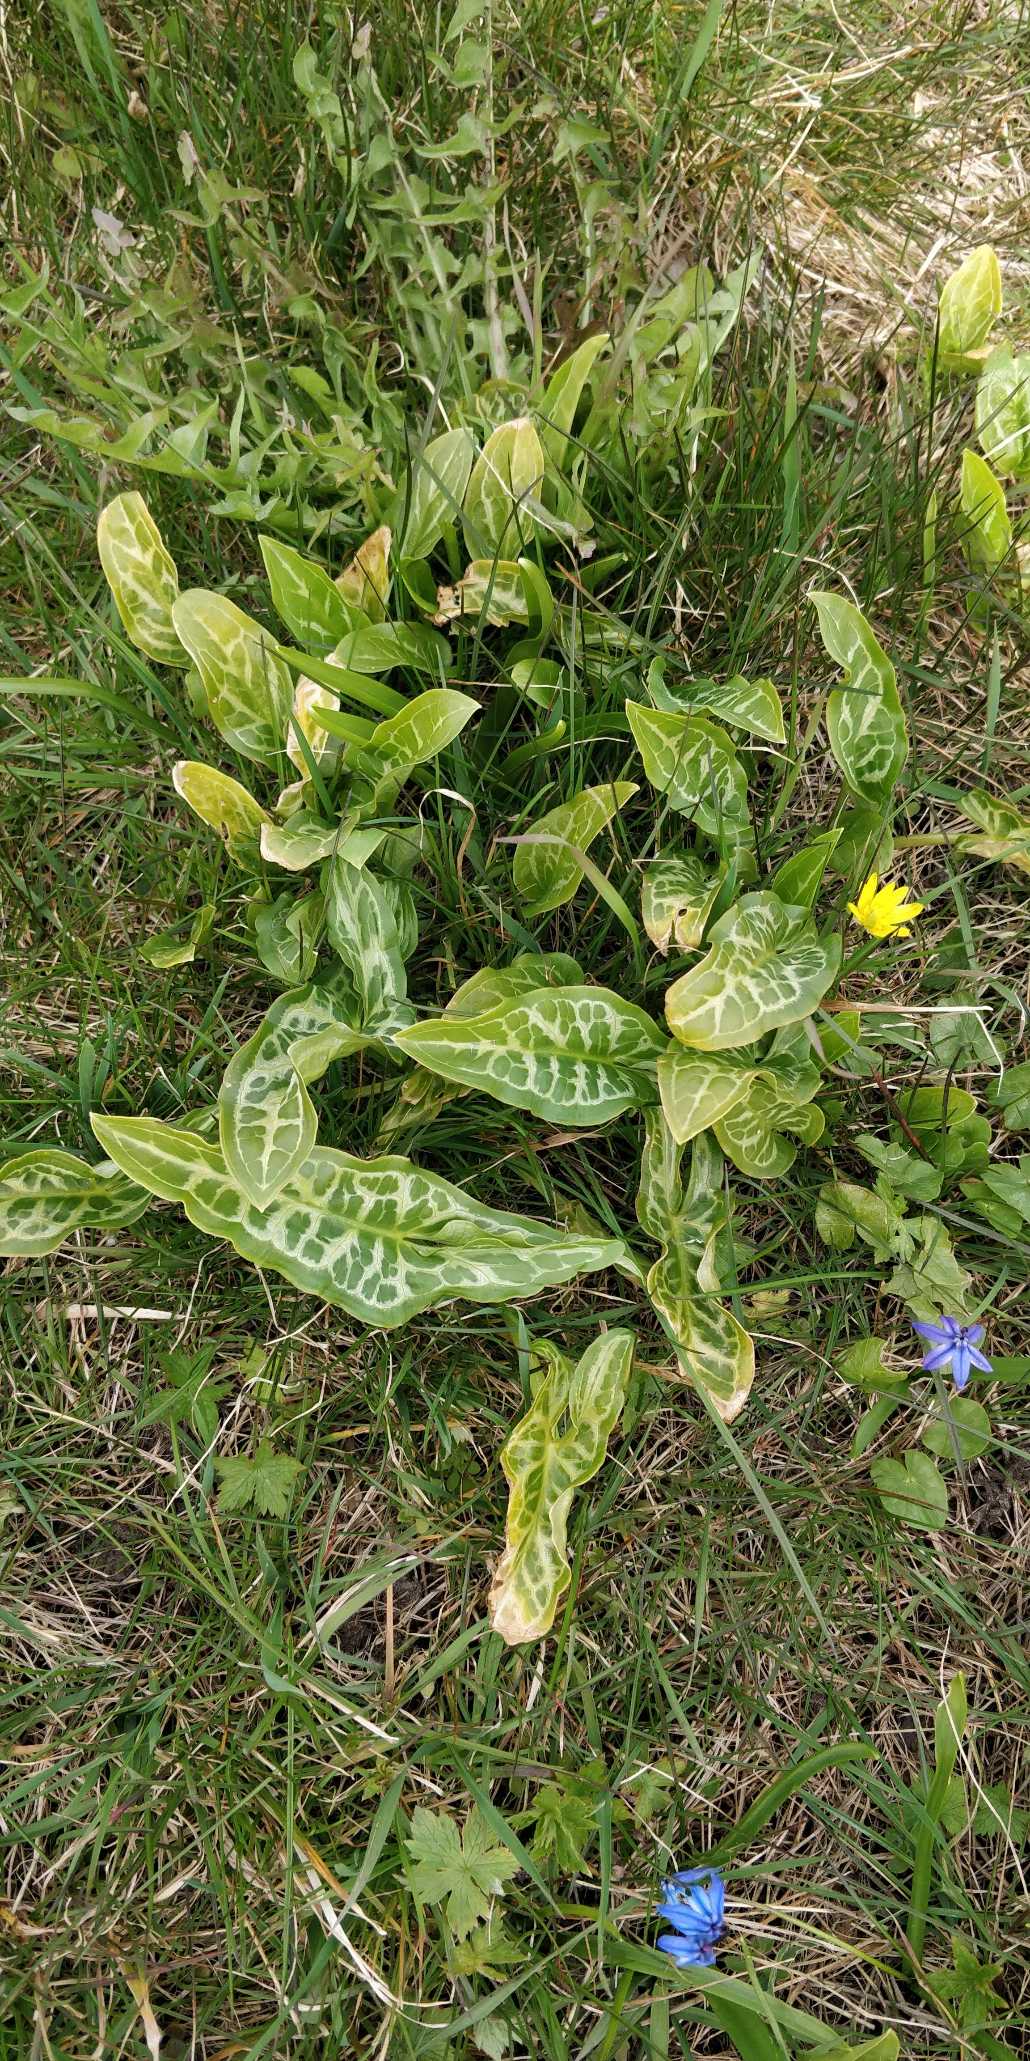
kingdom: Plantae
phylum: Tracheophyta
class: Liliopsida
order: Alismatales
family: Araceae
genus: Arum
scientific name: Arum italicum
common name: Italiensk arum
